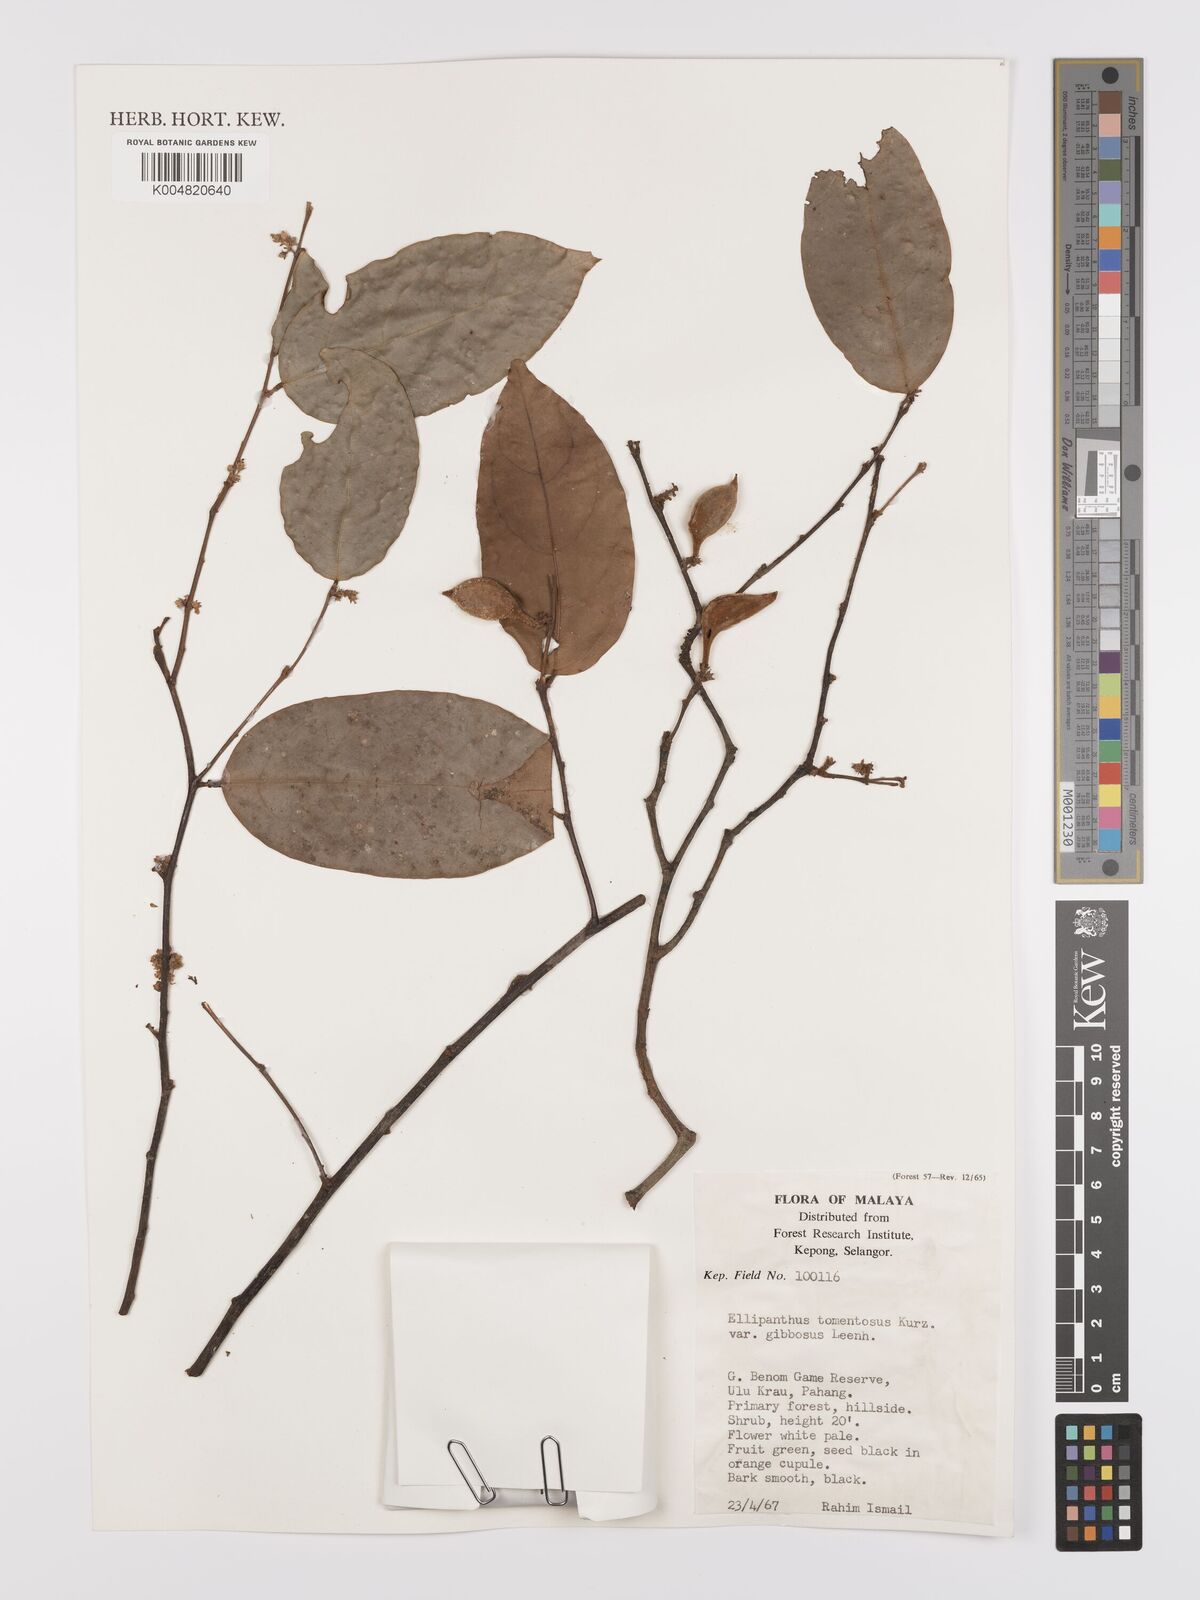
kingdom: Plantae
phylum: Tracheophyta
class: Magnoliopsida
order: Oxalidales
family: Connaraceae
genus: Ellipanthus
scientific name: Ellipanthus tomentosus
